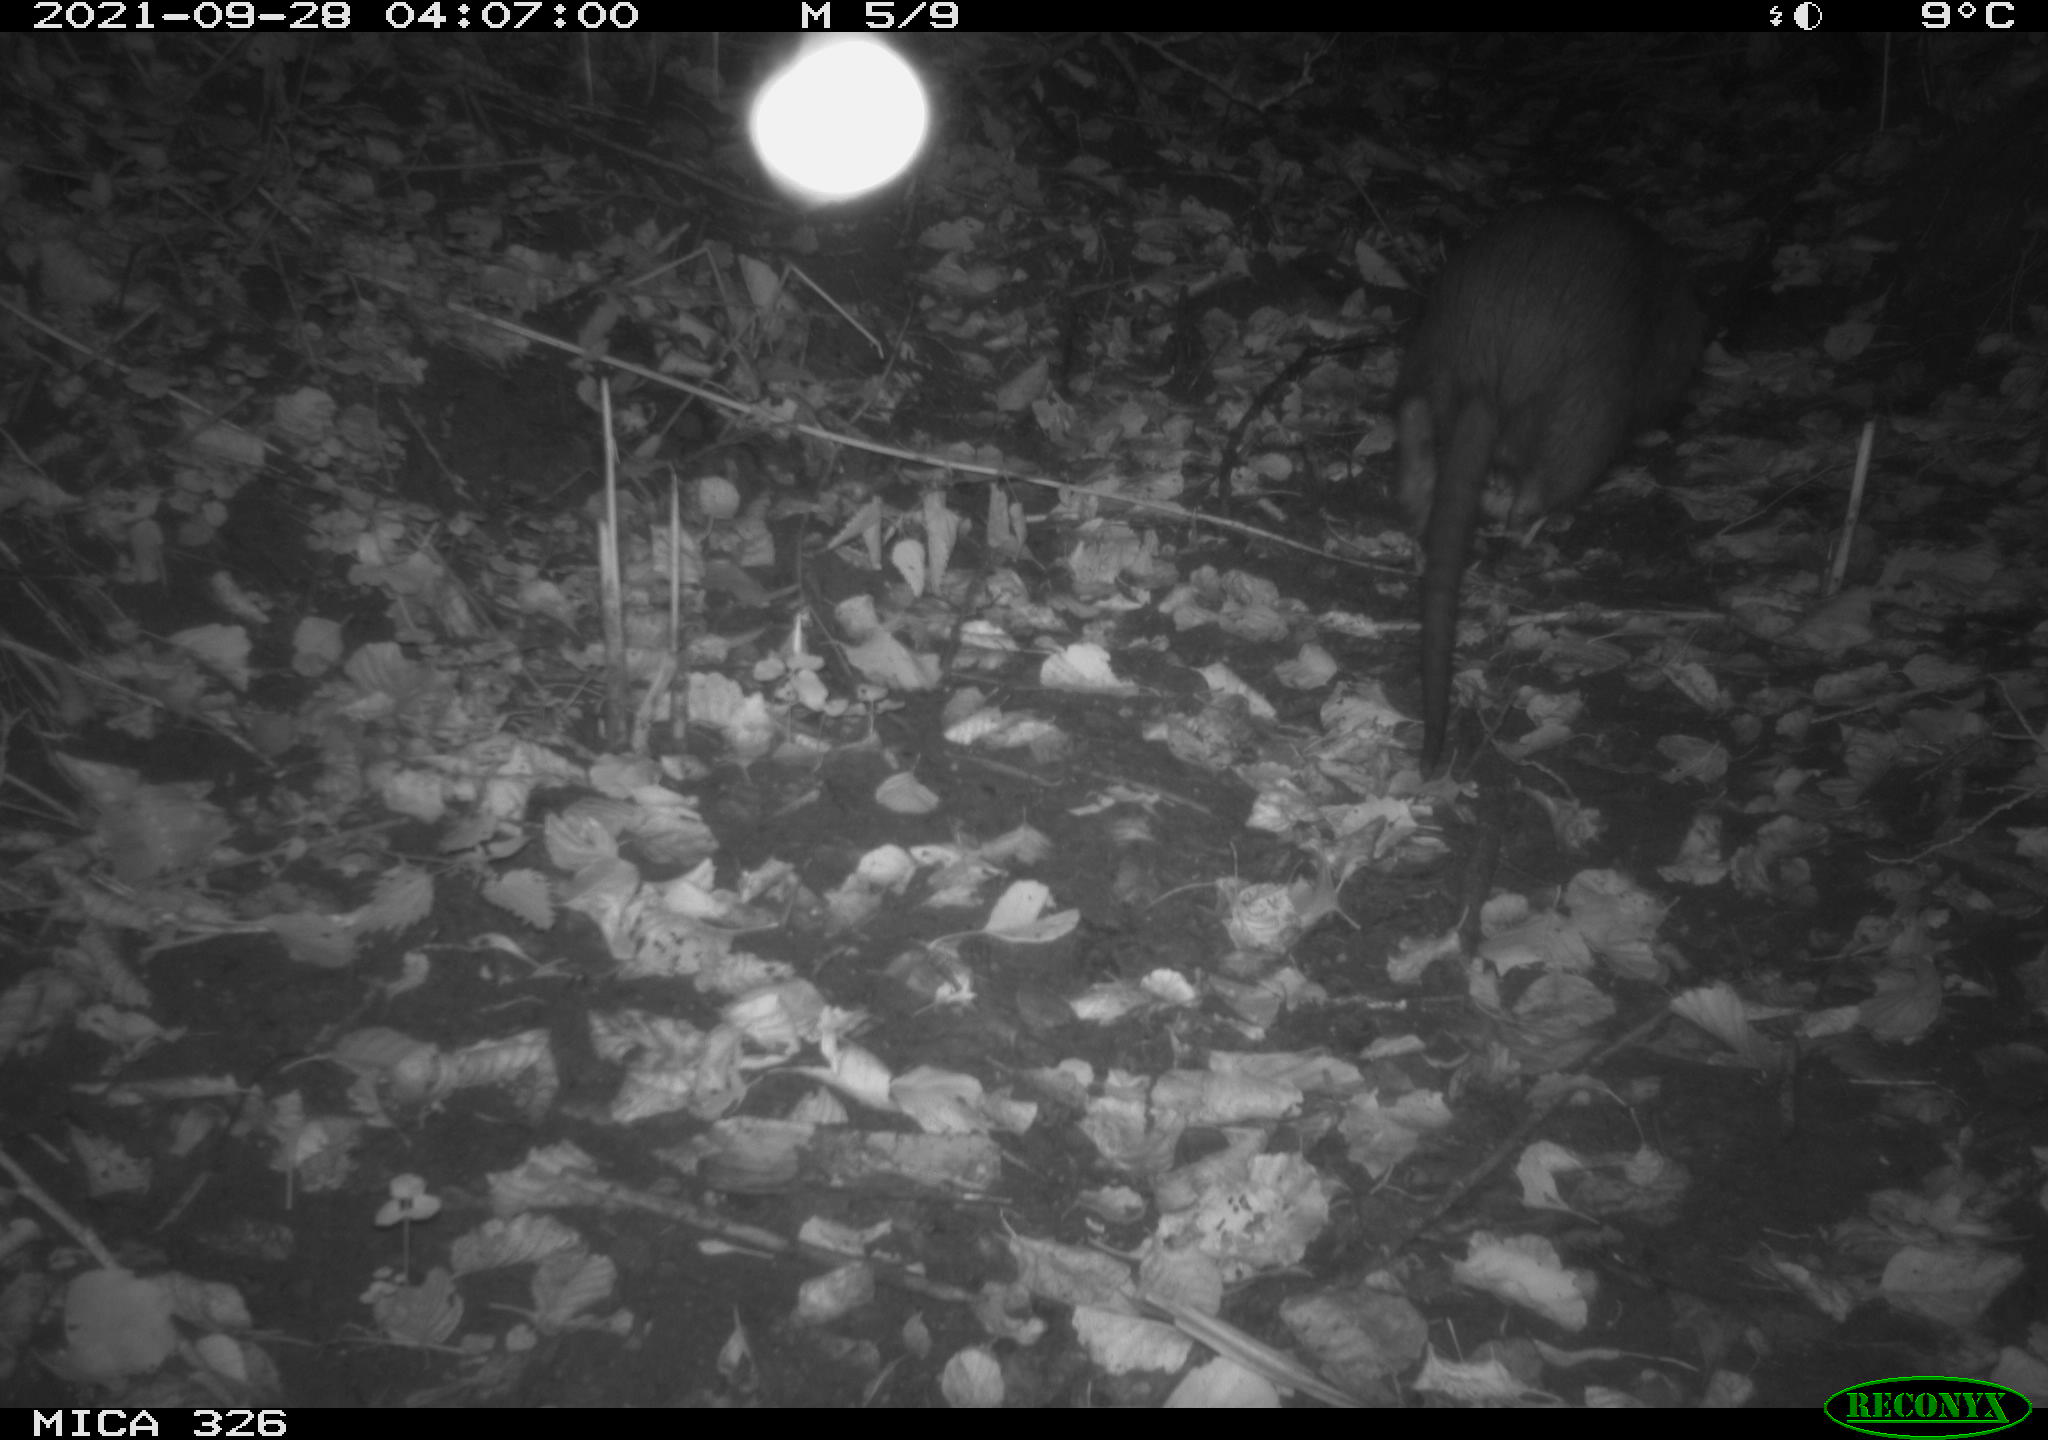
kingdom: Animalia
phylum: Chordata
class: Mammalia
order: Rodentia
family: Myocastoridae
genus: Myocastor
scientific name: Myocastor coypus
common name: Coypu
